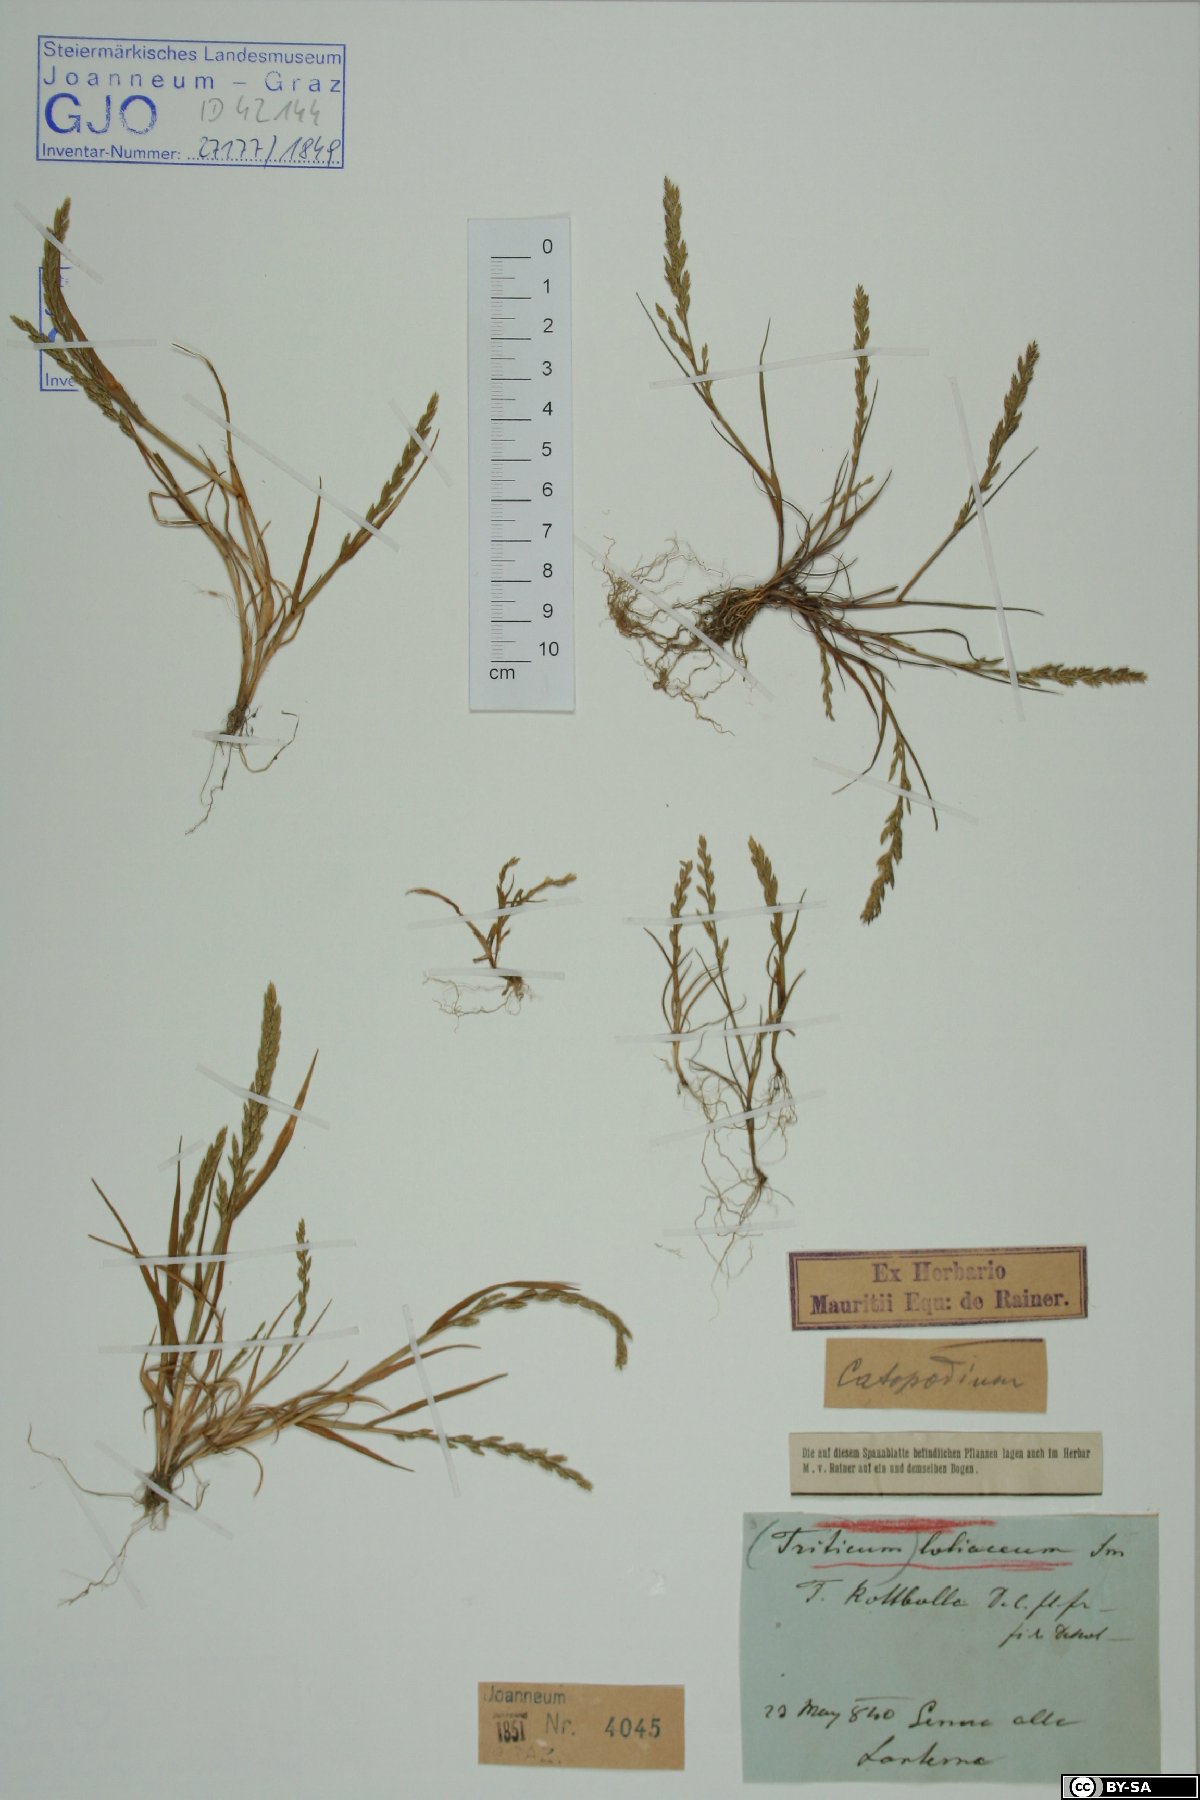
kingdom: Plantae
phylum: Tracheophyta
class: Liliopsida
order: Poales
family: Poaceae
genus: Catapodium
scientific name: Catapodium marinum
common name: Sea fern-grass
